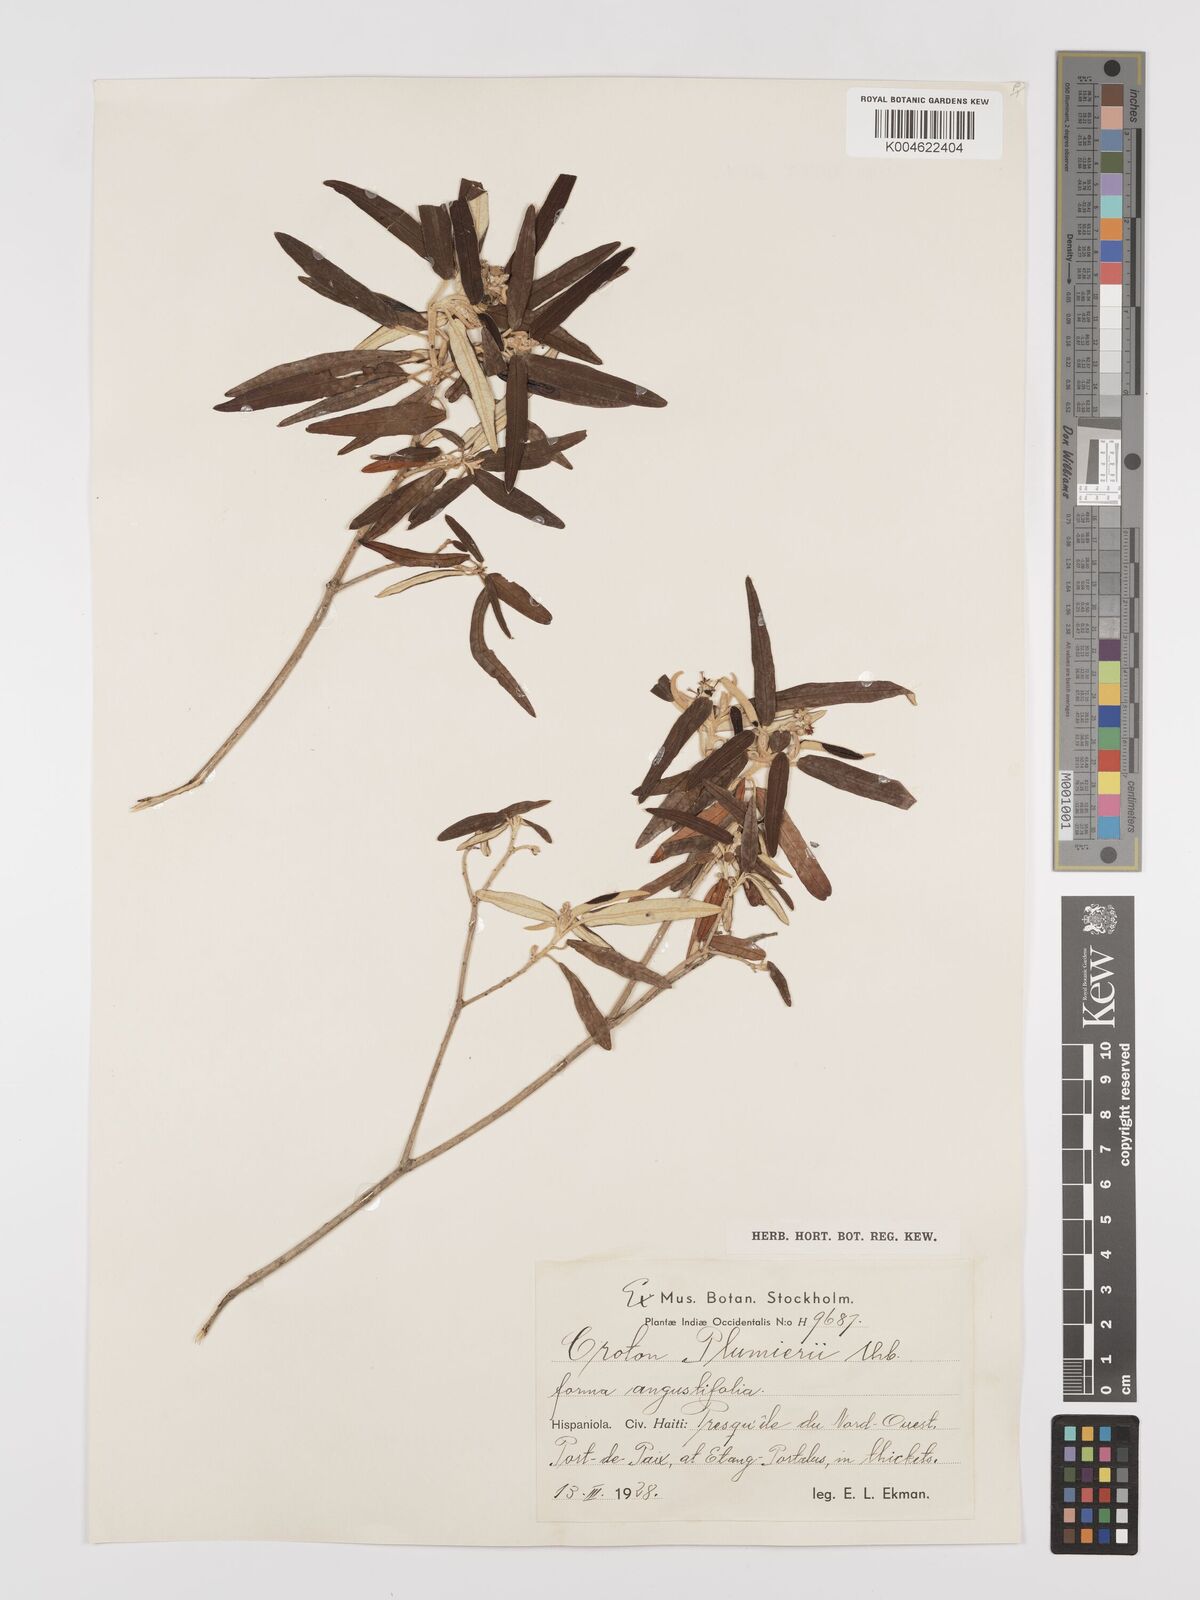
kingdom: Plantae
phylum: Tracheophyta
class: Magnoliopsida
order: Malpighiales
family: Euphorbiaceae
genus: Croton
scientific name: Croton vaillantii
